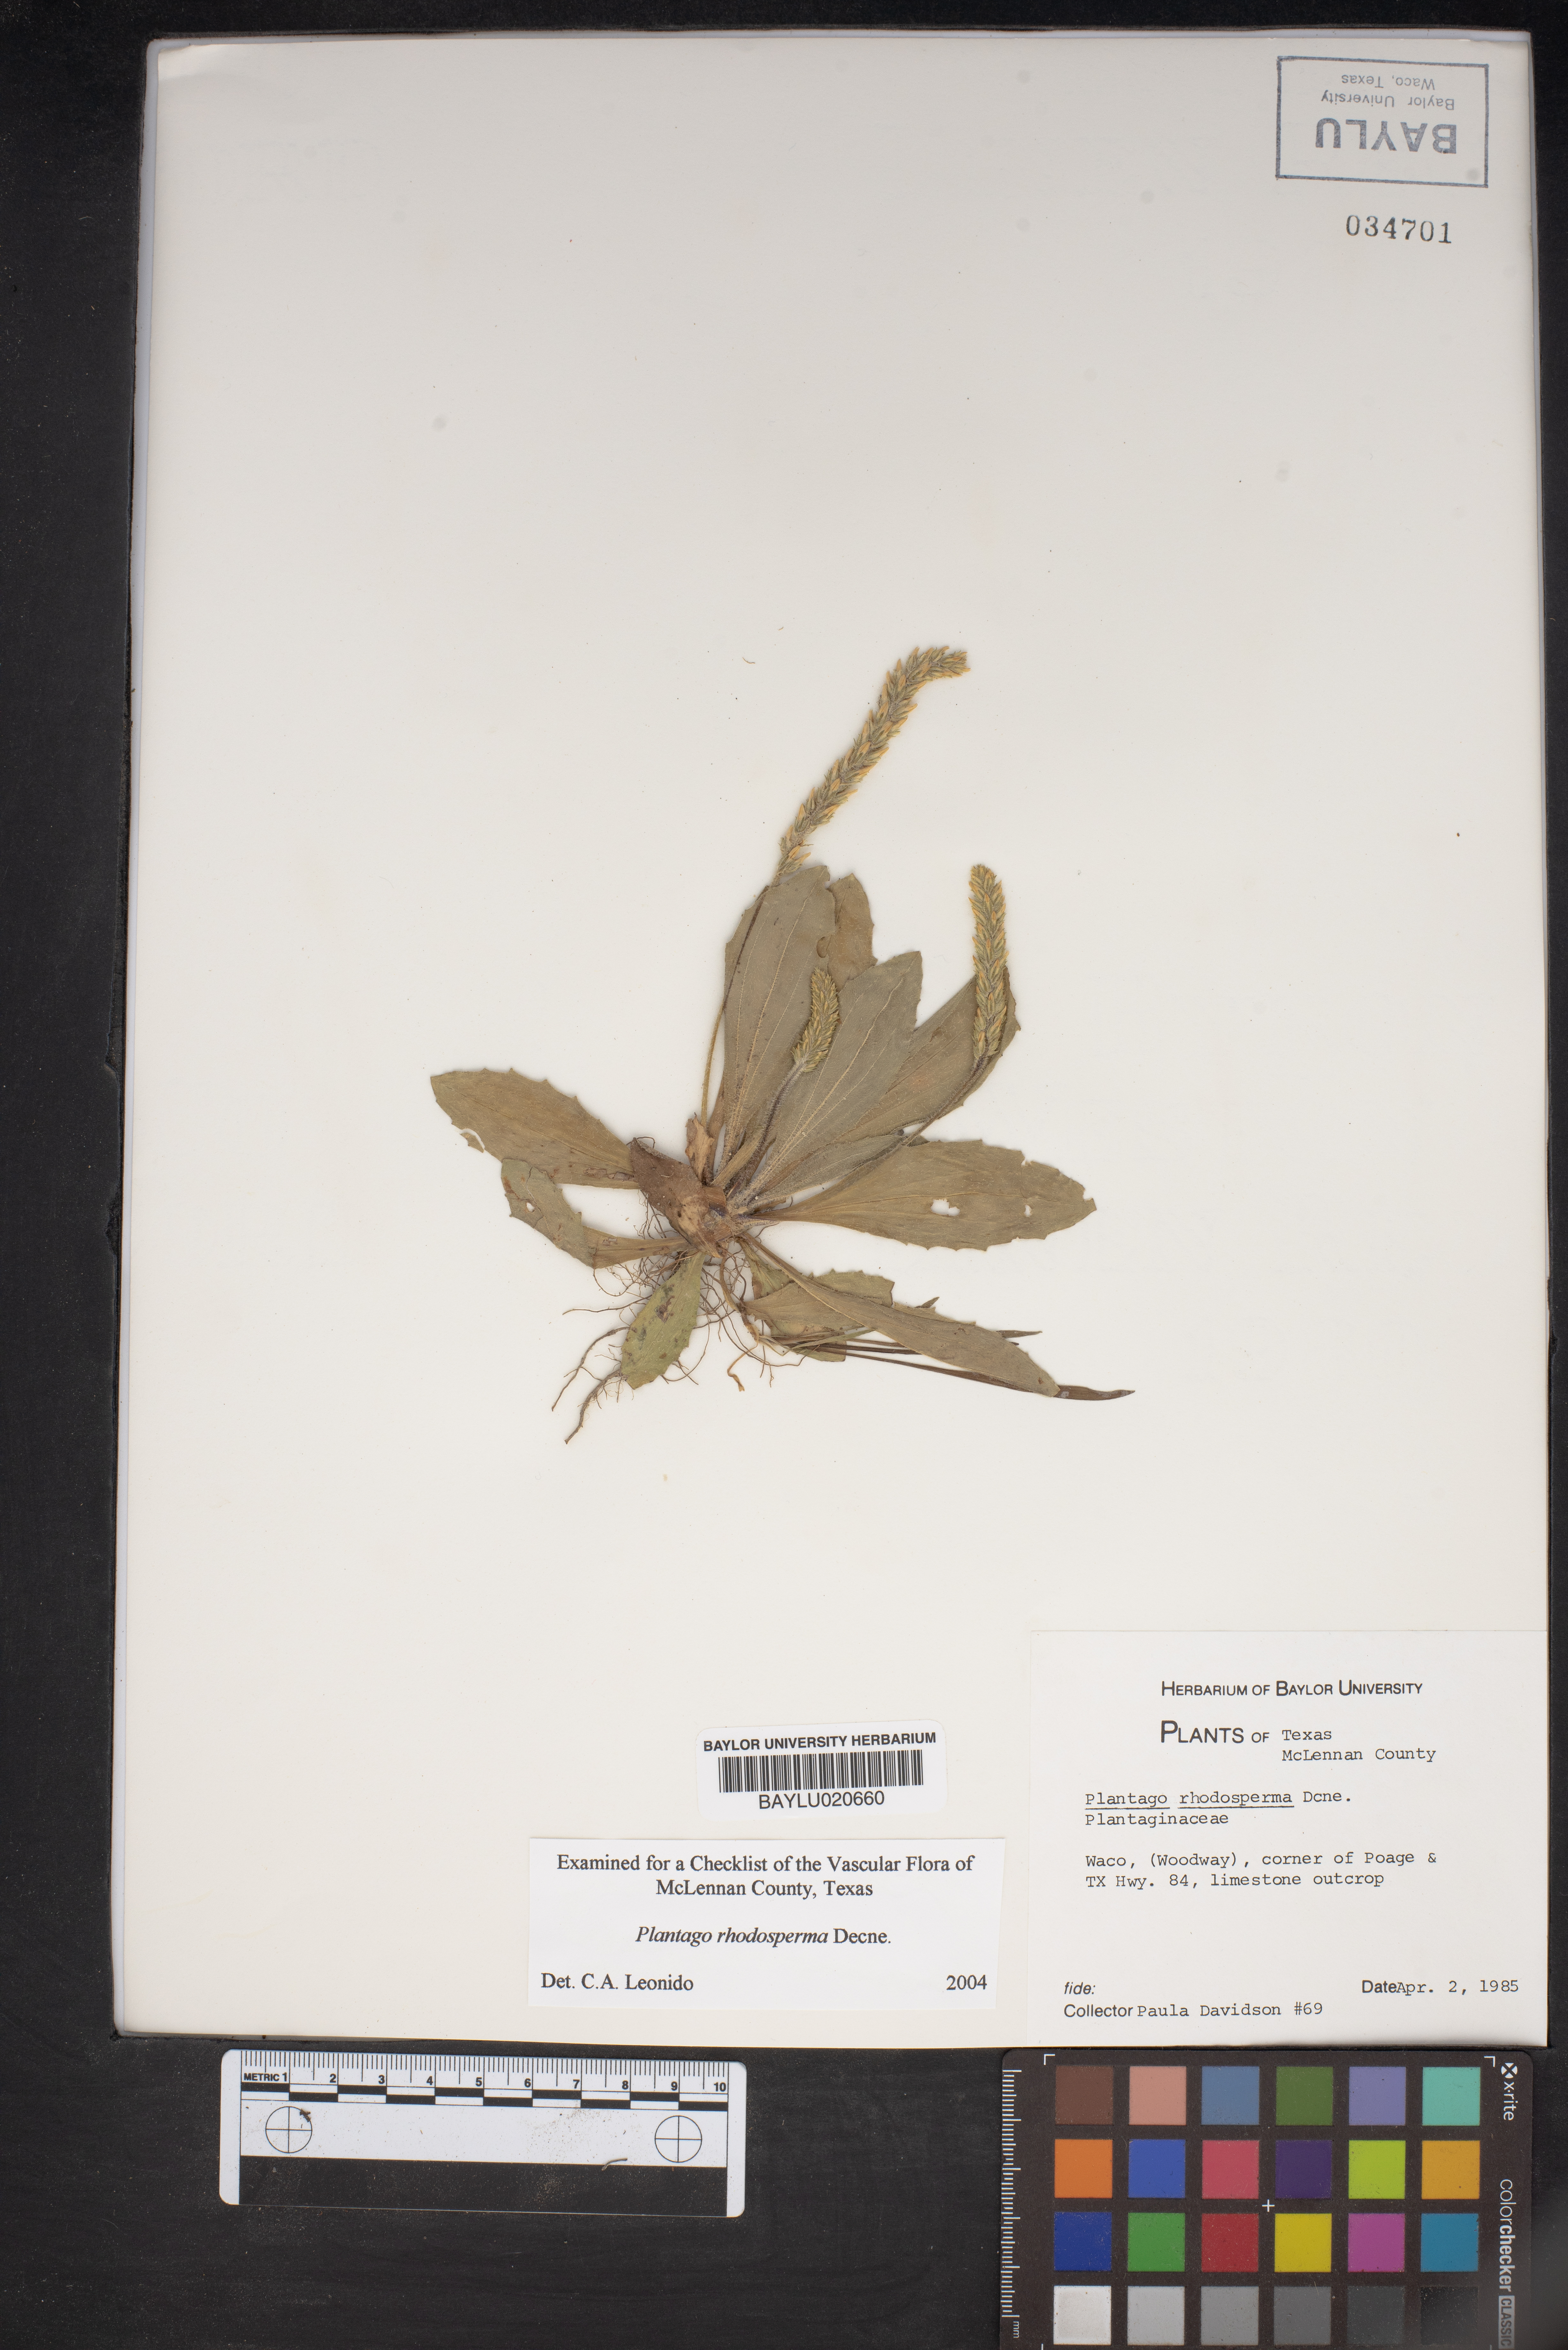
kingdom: Plantae
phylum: Tracheophyta
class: Magnoliopsida
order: Lamiales
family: Plantaginaceae
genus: Plantago
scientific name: Plantago rhodosperma
